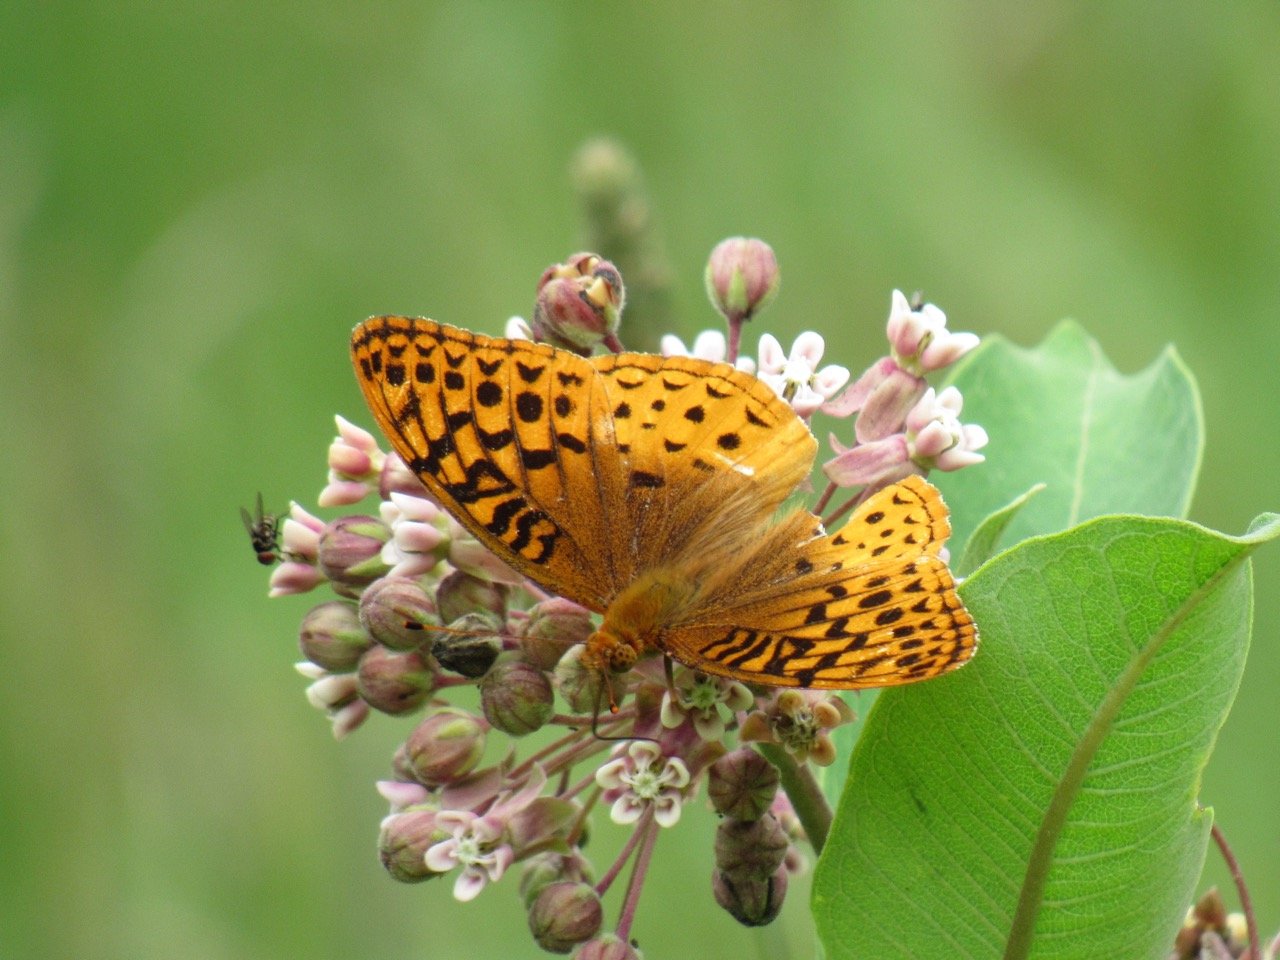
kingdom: Animalia
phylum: Arthropoda
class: Insecta
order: Lepidoptera
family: Nymphalidae
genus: Speyeria
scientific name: Speyeria cybele
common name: Great Spangled Fritillary
